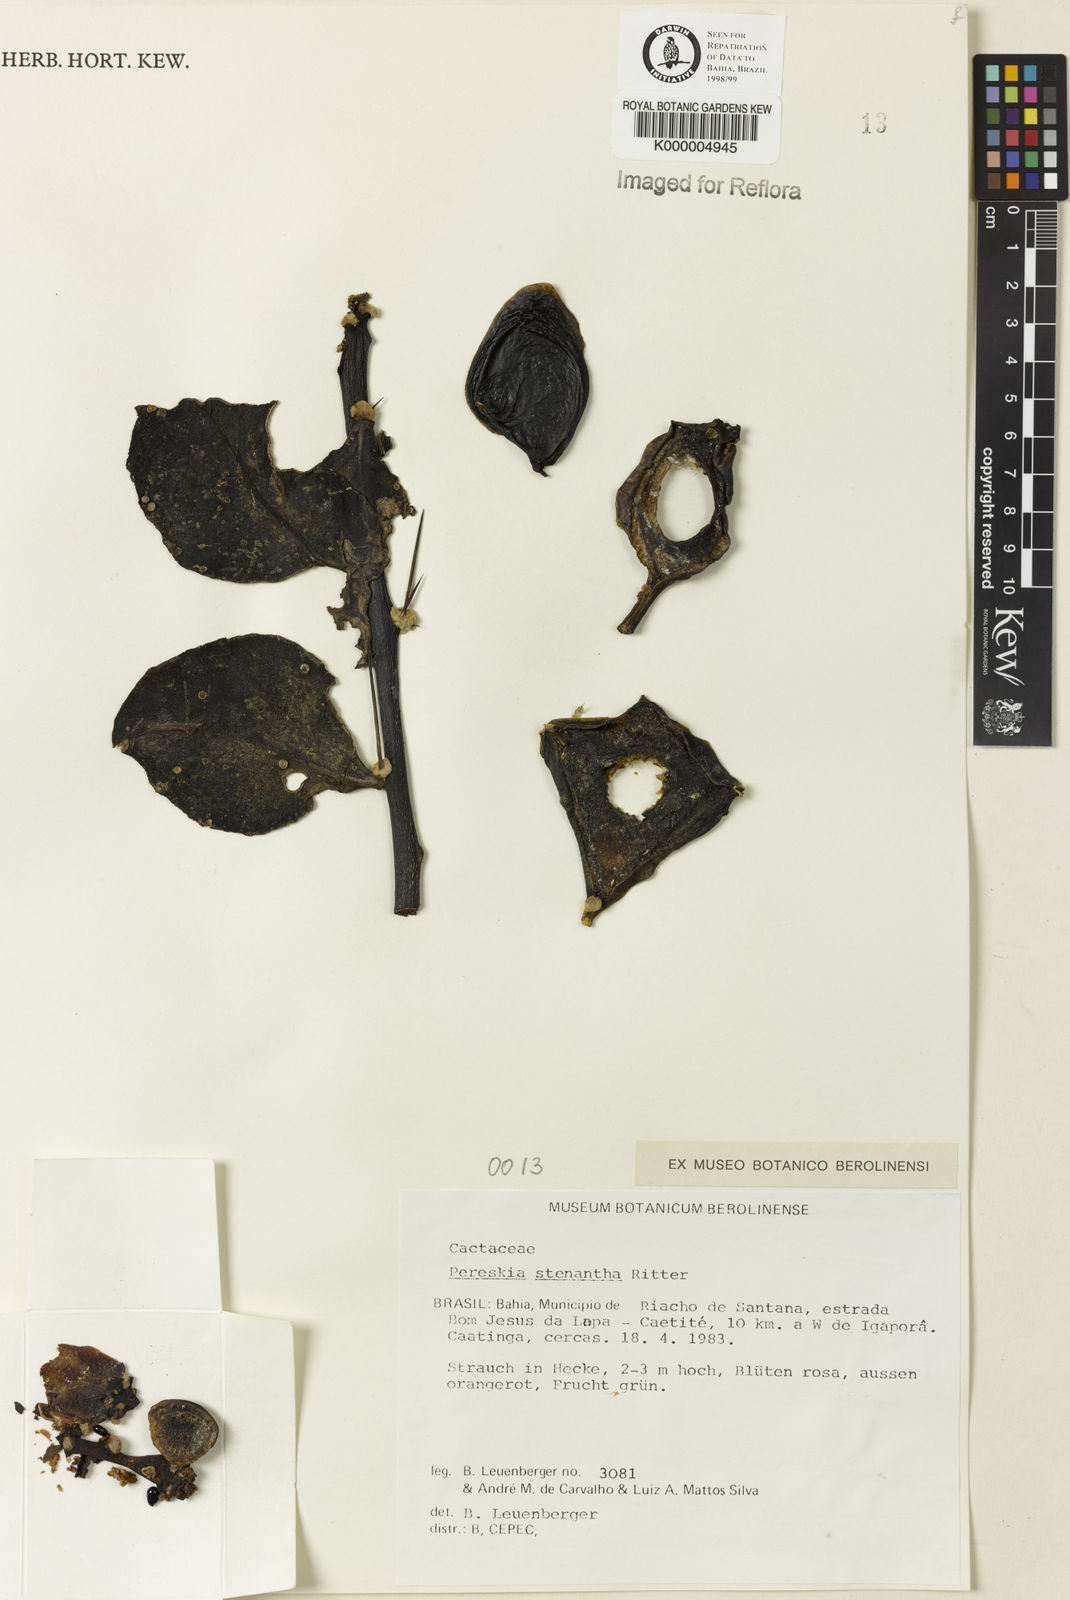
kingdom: Plantae
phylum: Tracheophyta
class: Magnoliopsida
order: Caryophyllales
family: Cactaceae
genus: Pereskia
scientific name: Pereskia stenantha
